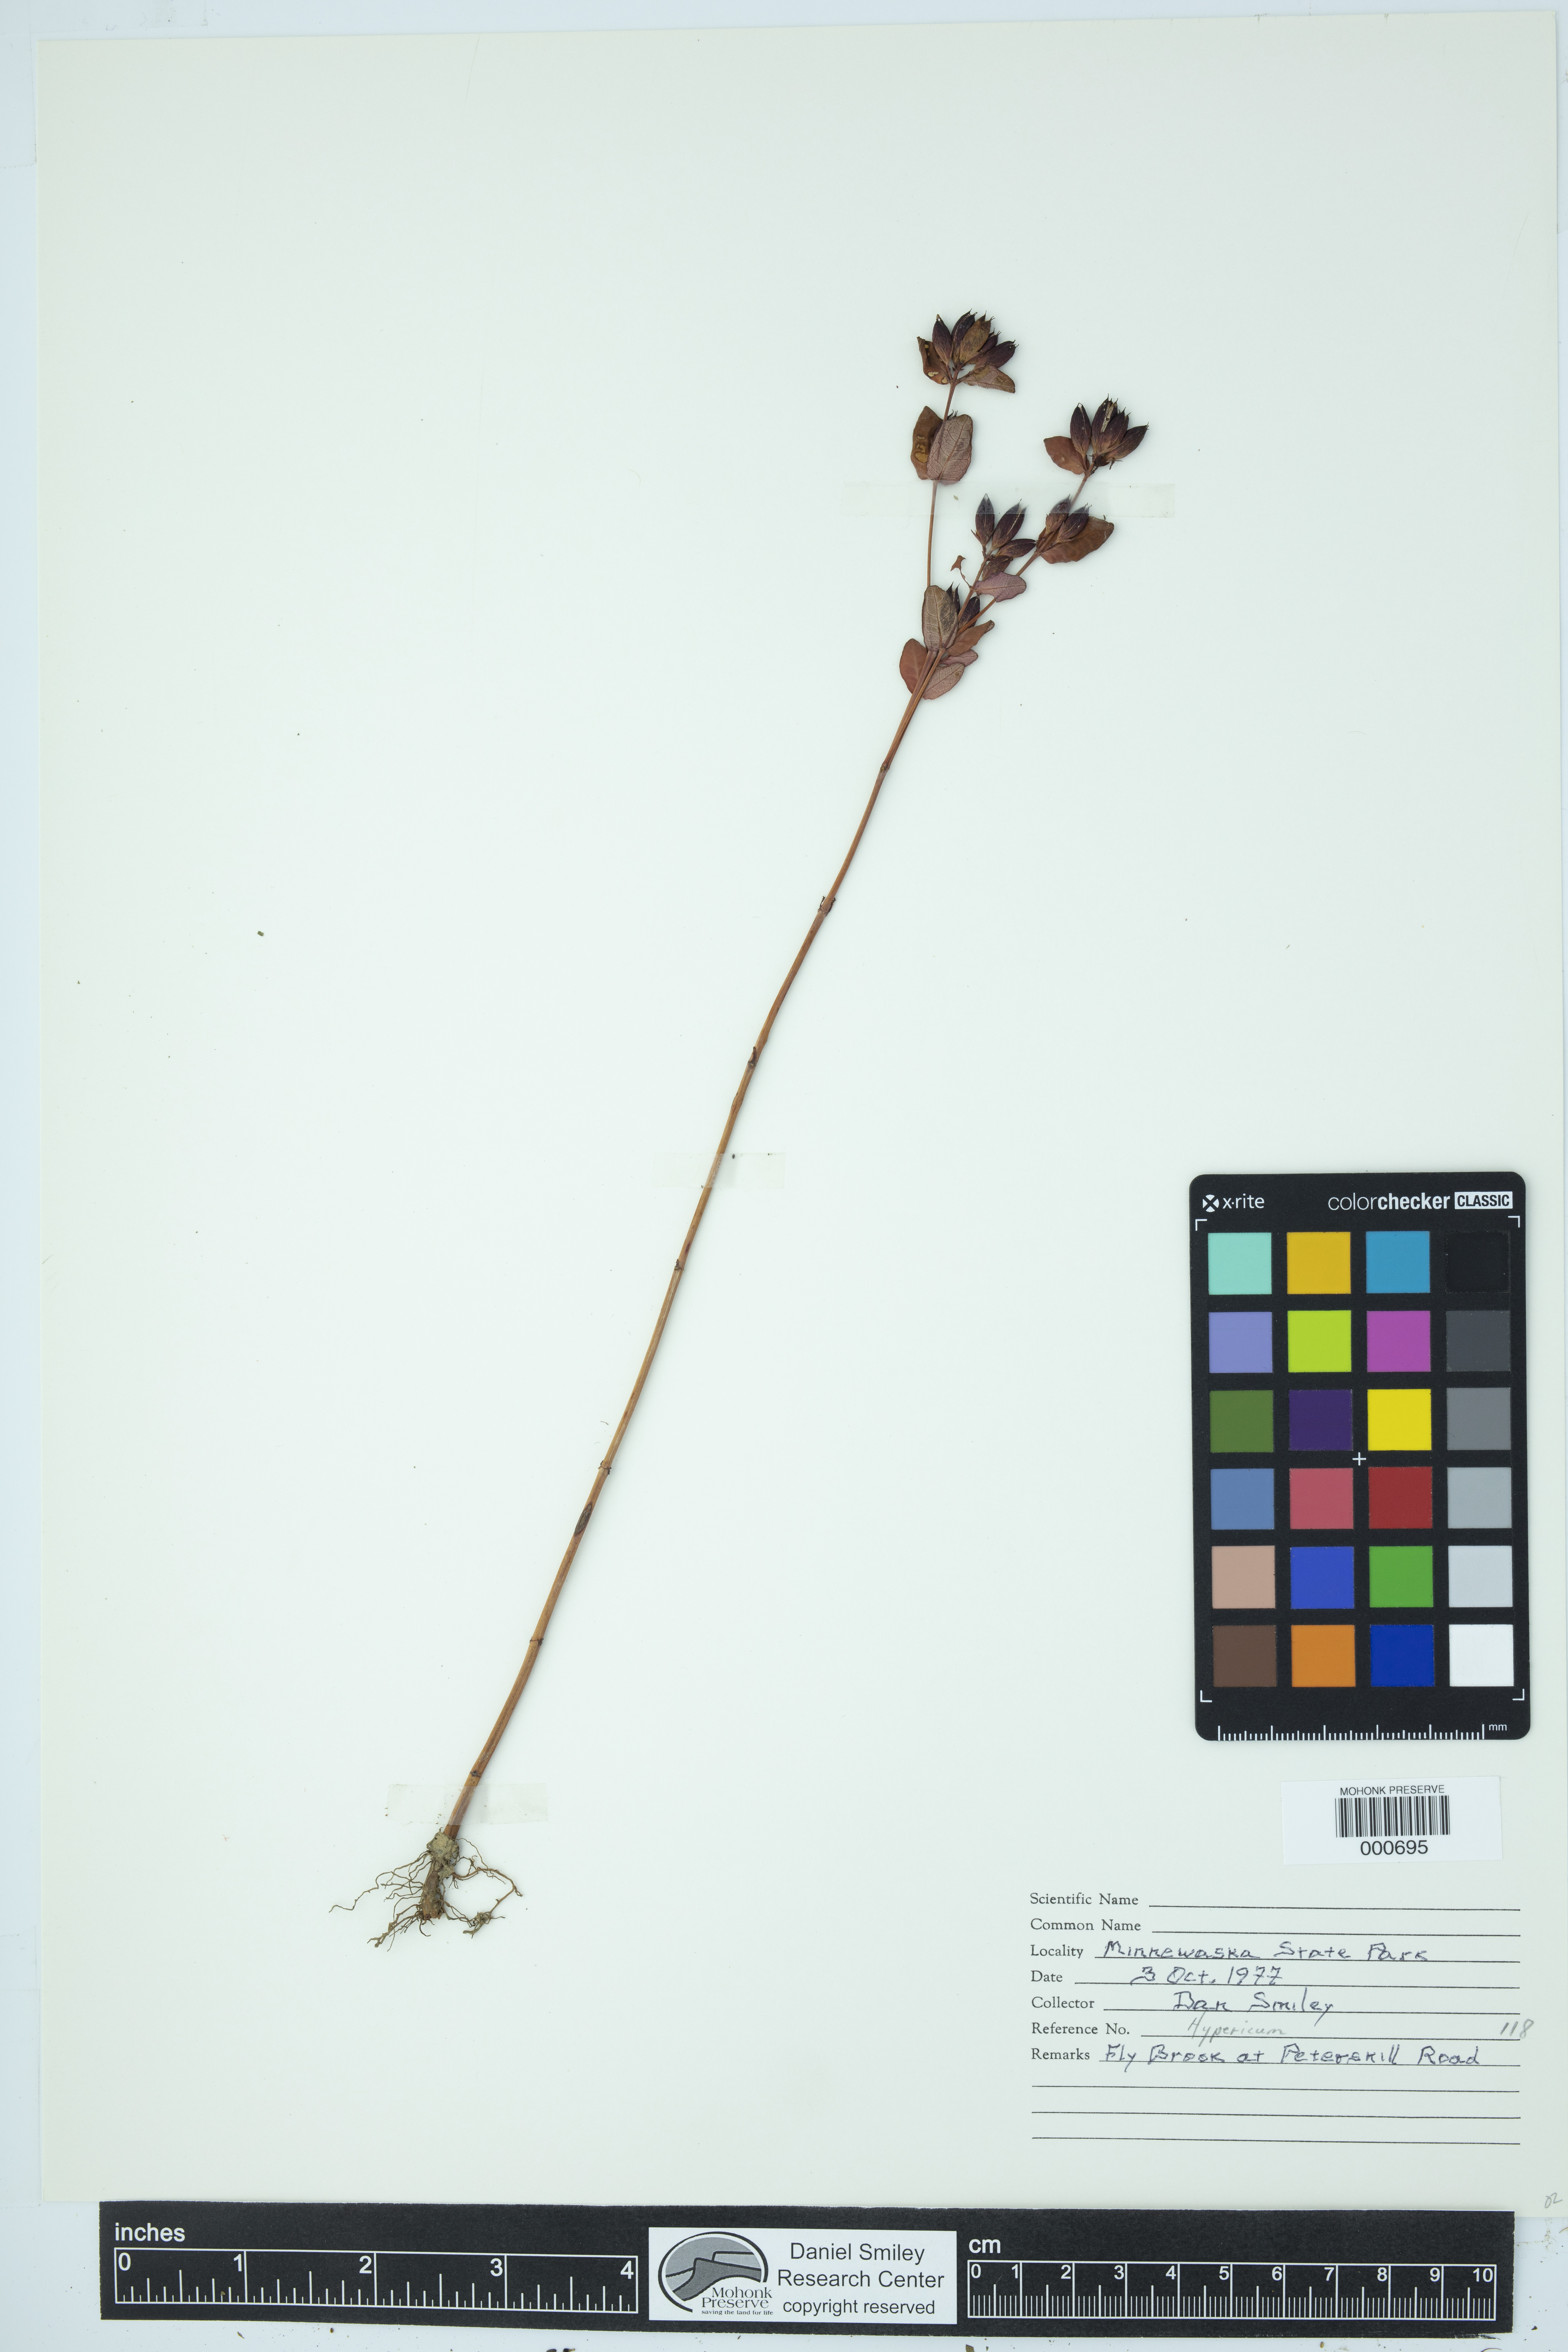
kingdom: Plantae
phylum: Tracheophyta
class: Magnoliopsida
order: Malpighiales
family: Hypericaceae
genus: Hypericum
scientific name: Hypericum
